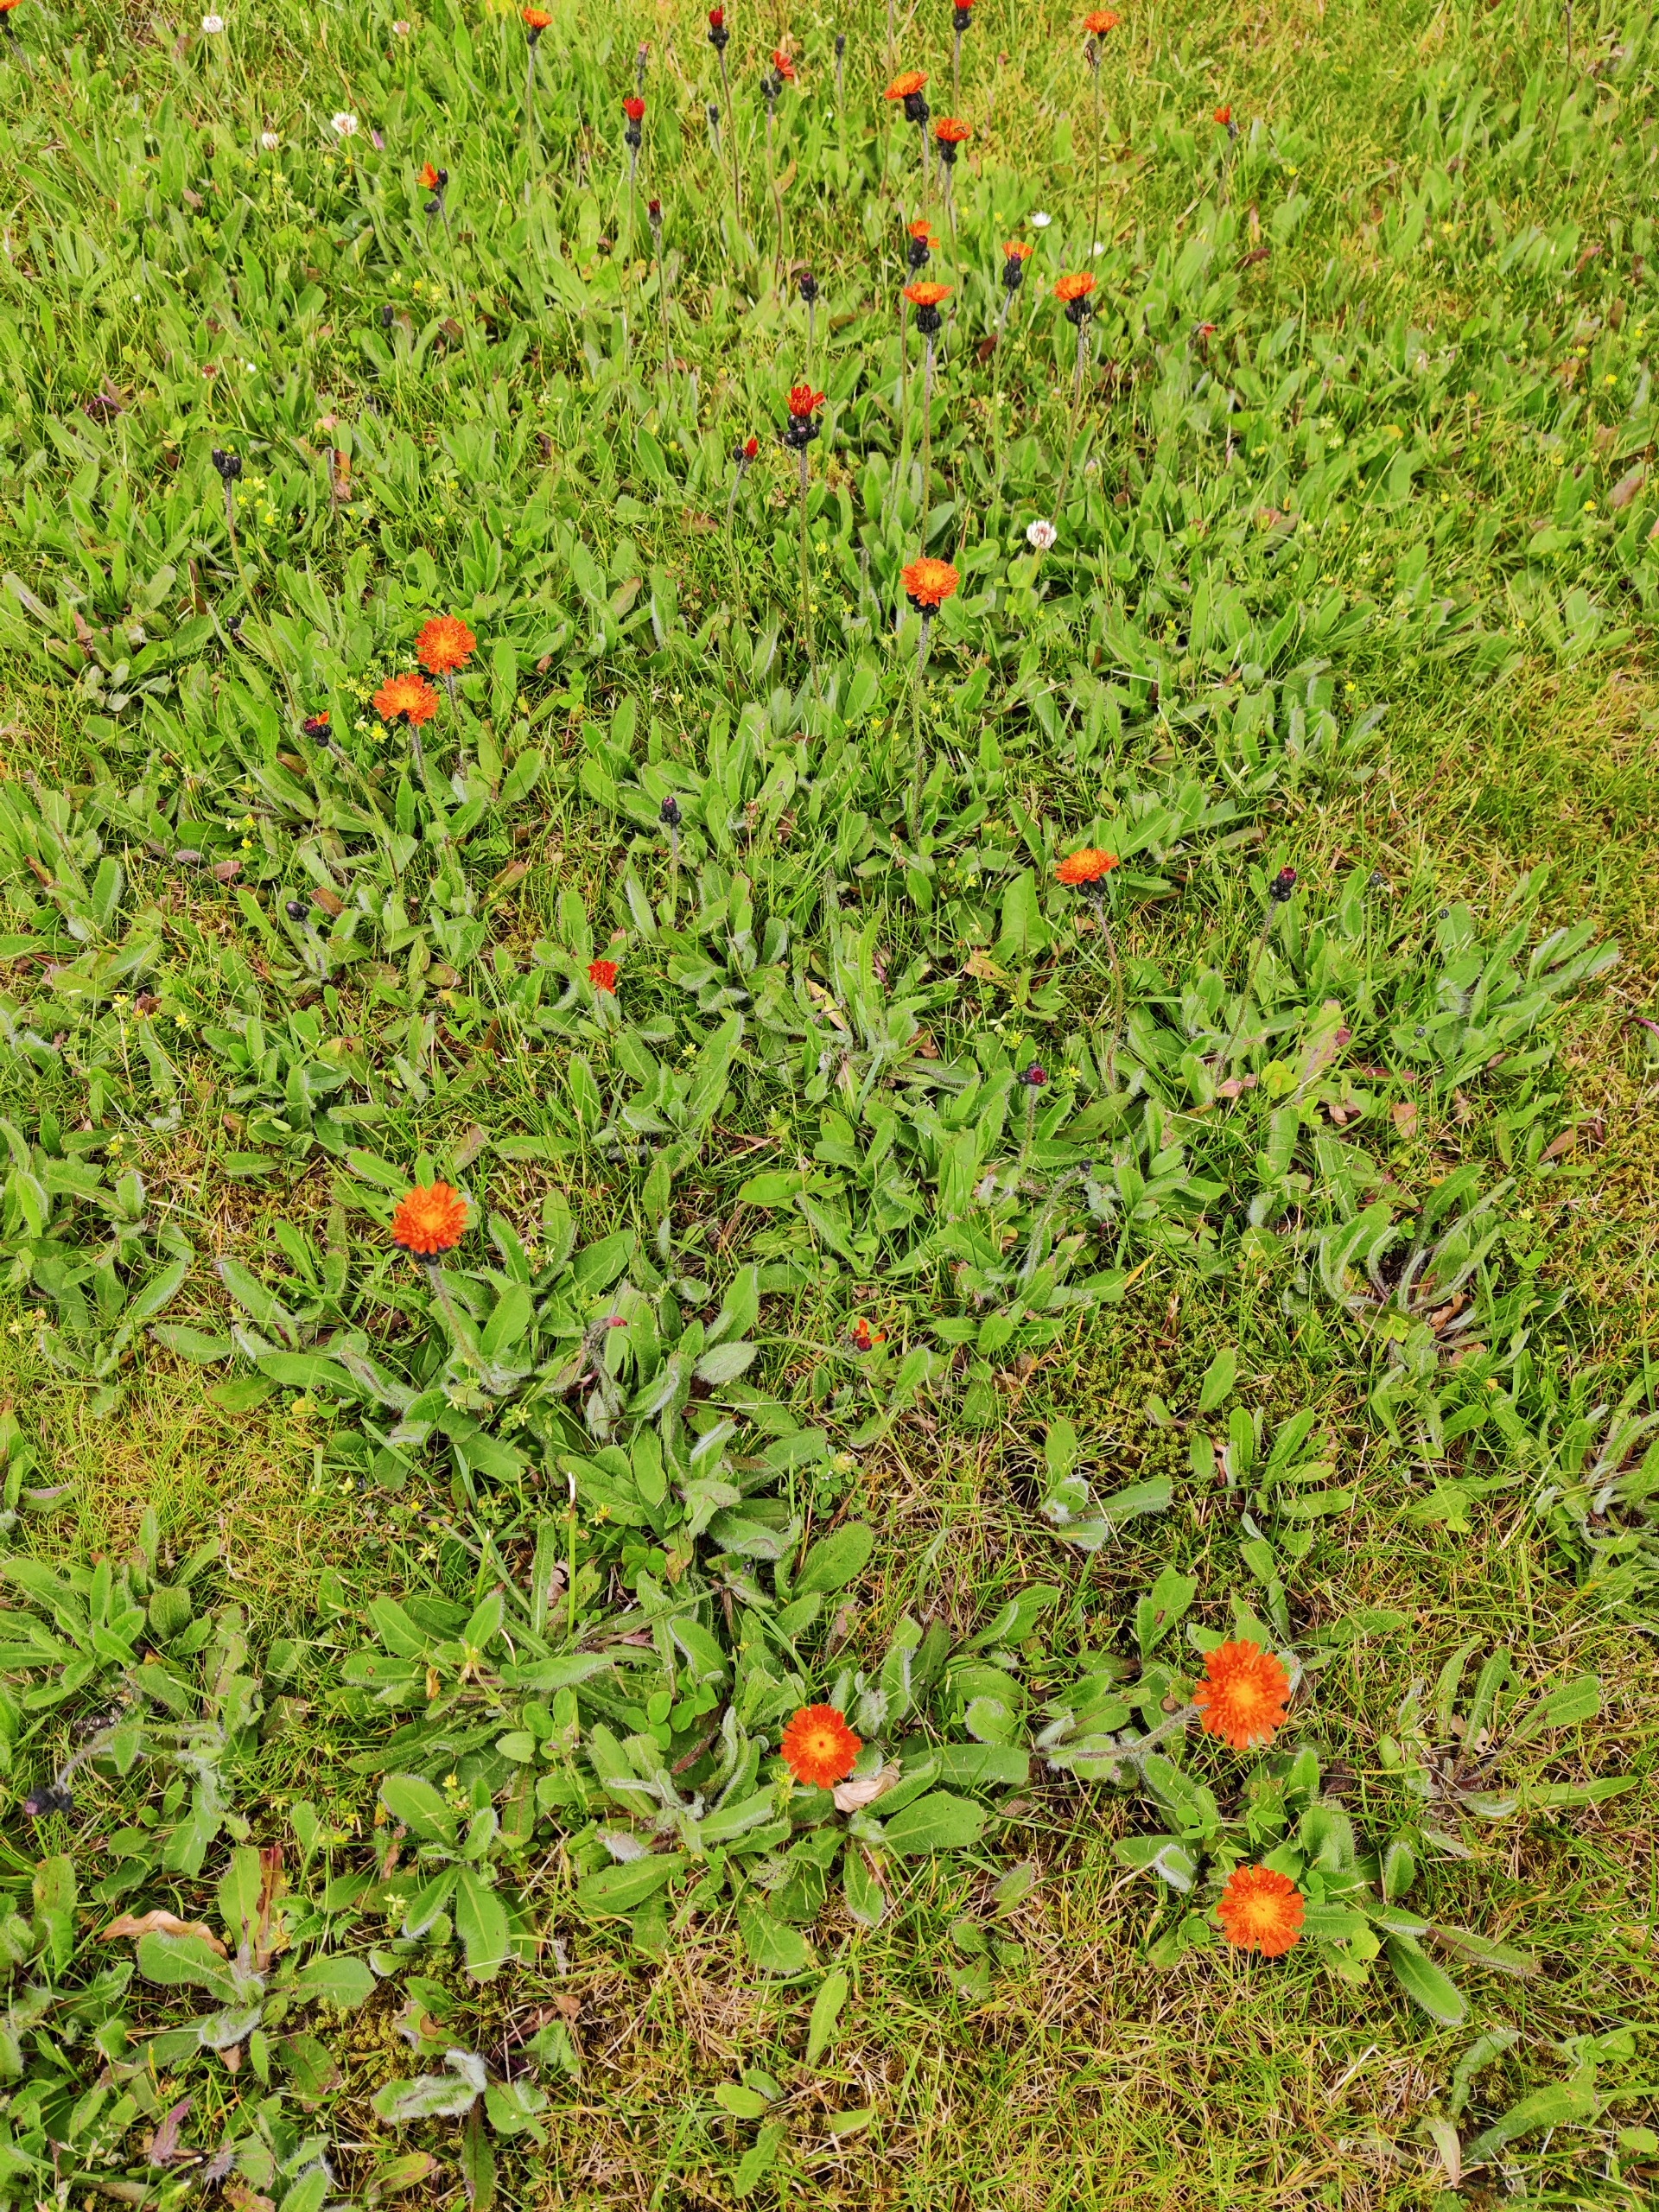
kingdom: Plantae
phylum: Tracheophyta
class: Magnoliopsida
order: Asterales
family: Asteraceae
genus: Pilosella
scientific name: Pilosella aurantiaca
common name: Pomerans-høgeurt
